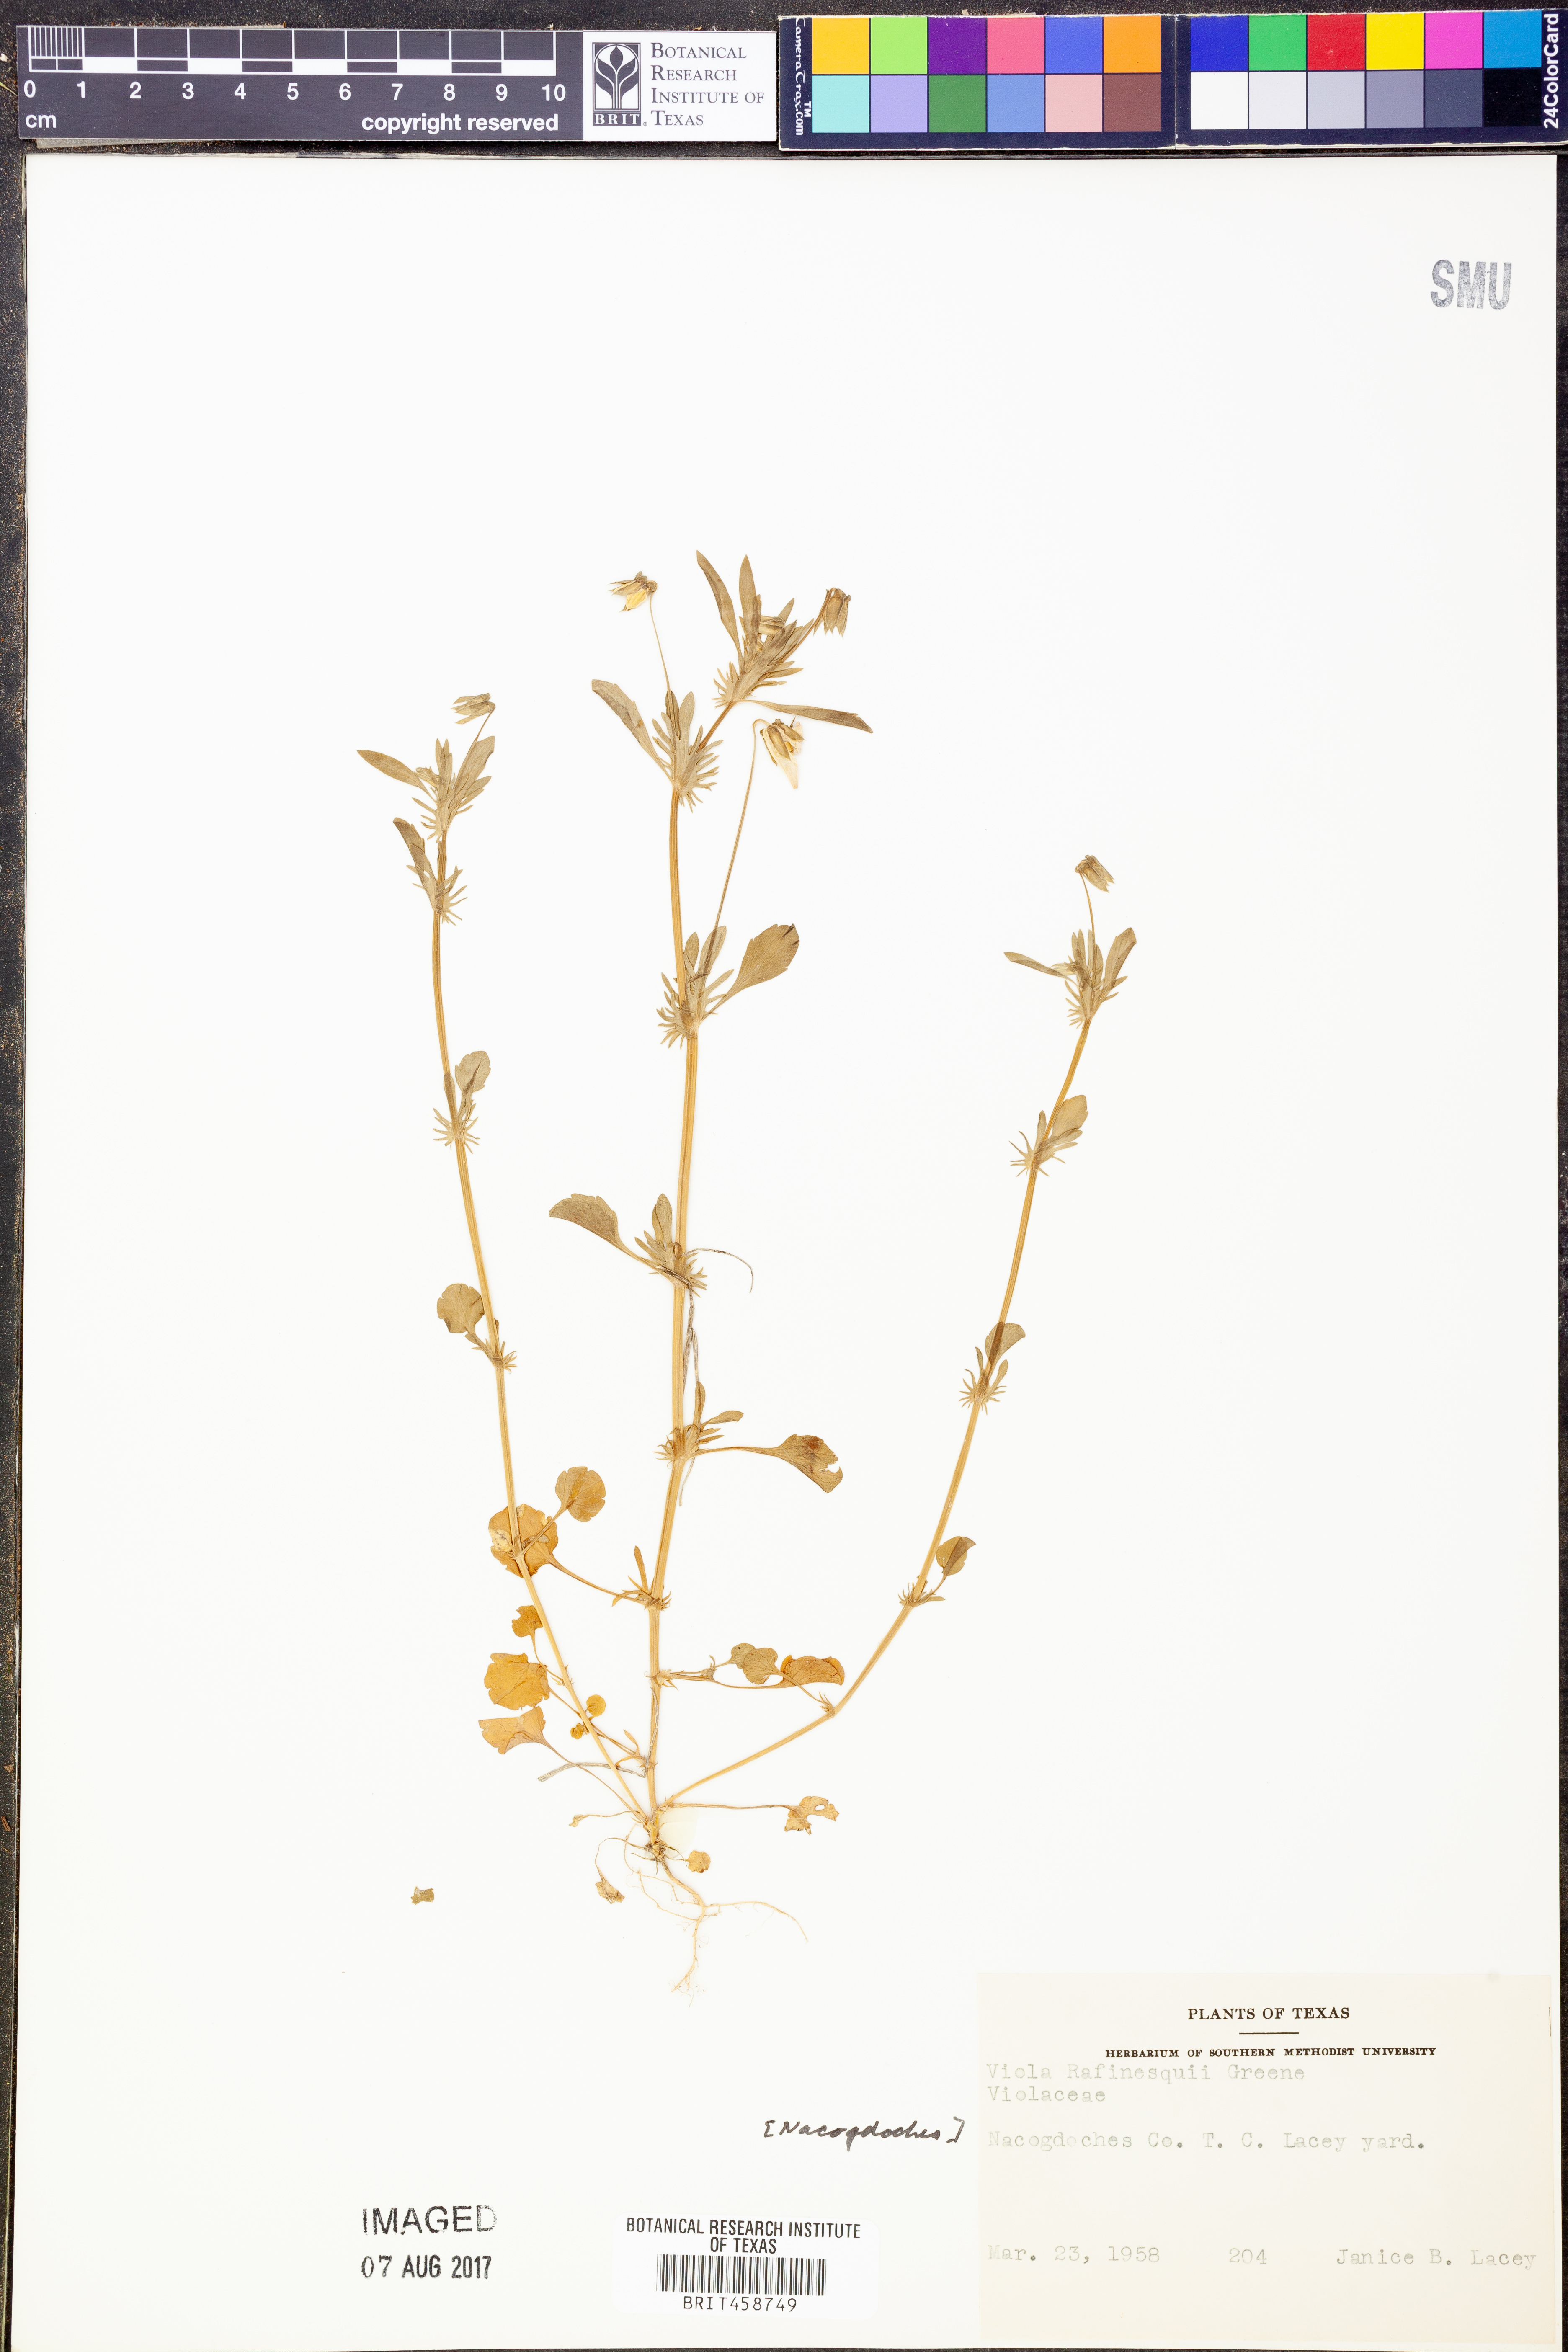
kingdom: Plantae
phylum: Tracheophyta
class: Magnoliopsida
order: Malpighiales
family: Violaceae
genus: Viola
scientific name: Viola rafinesquei
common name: American field pansy
